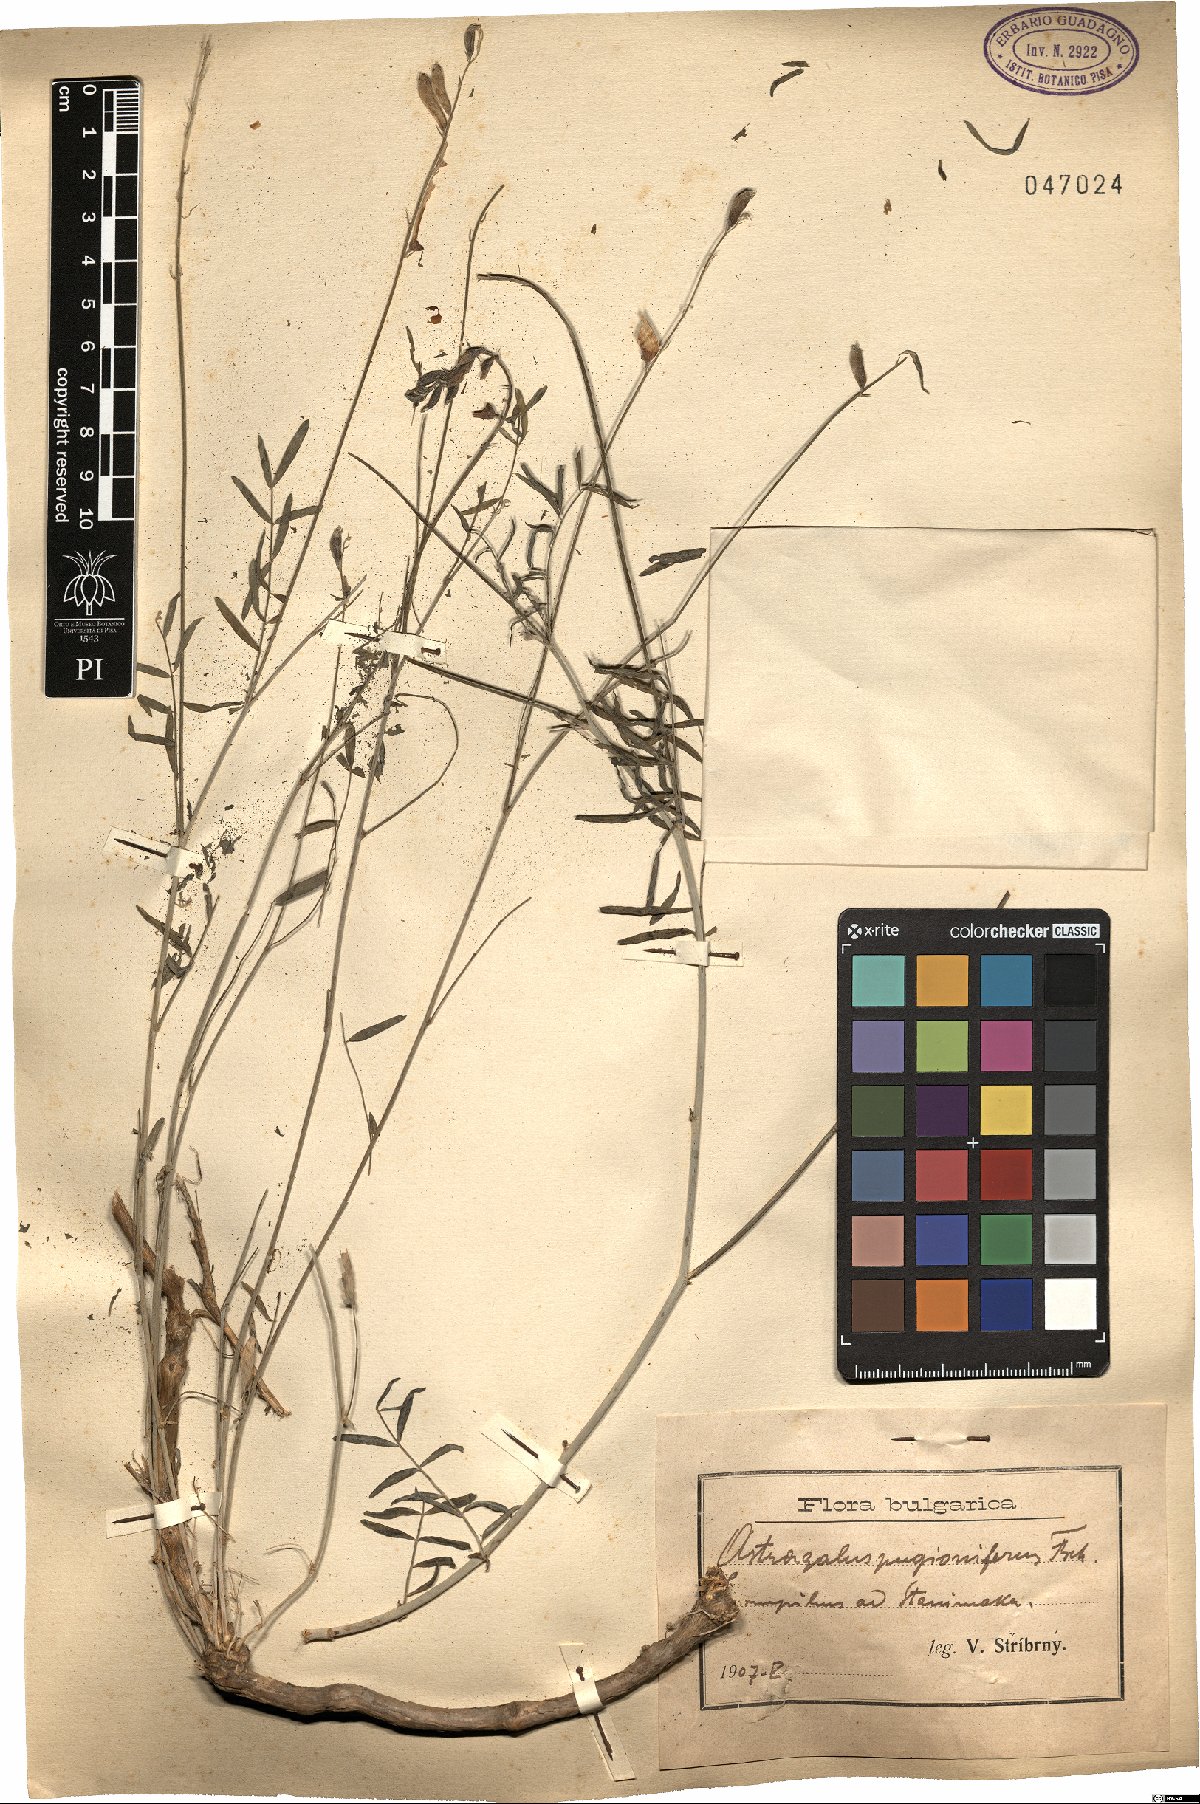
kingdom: Plantae
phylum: Tracheophyta
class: Magnoliopsida
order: Fabales
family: Fabaceae
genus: Astragalus
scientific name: Astragalus gladiatus
